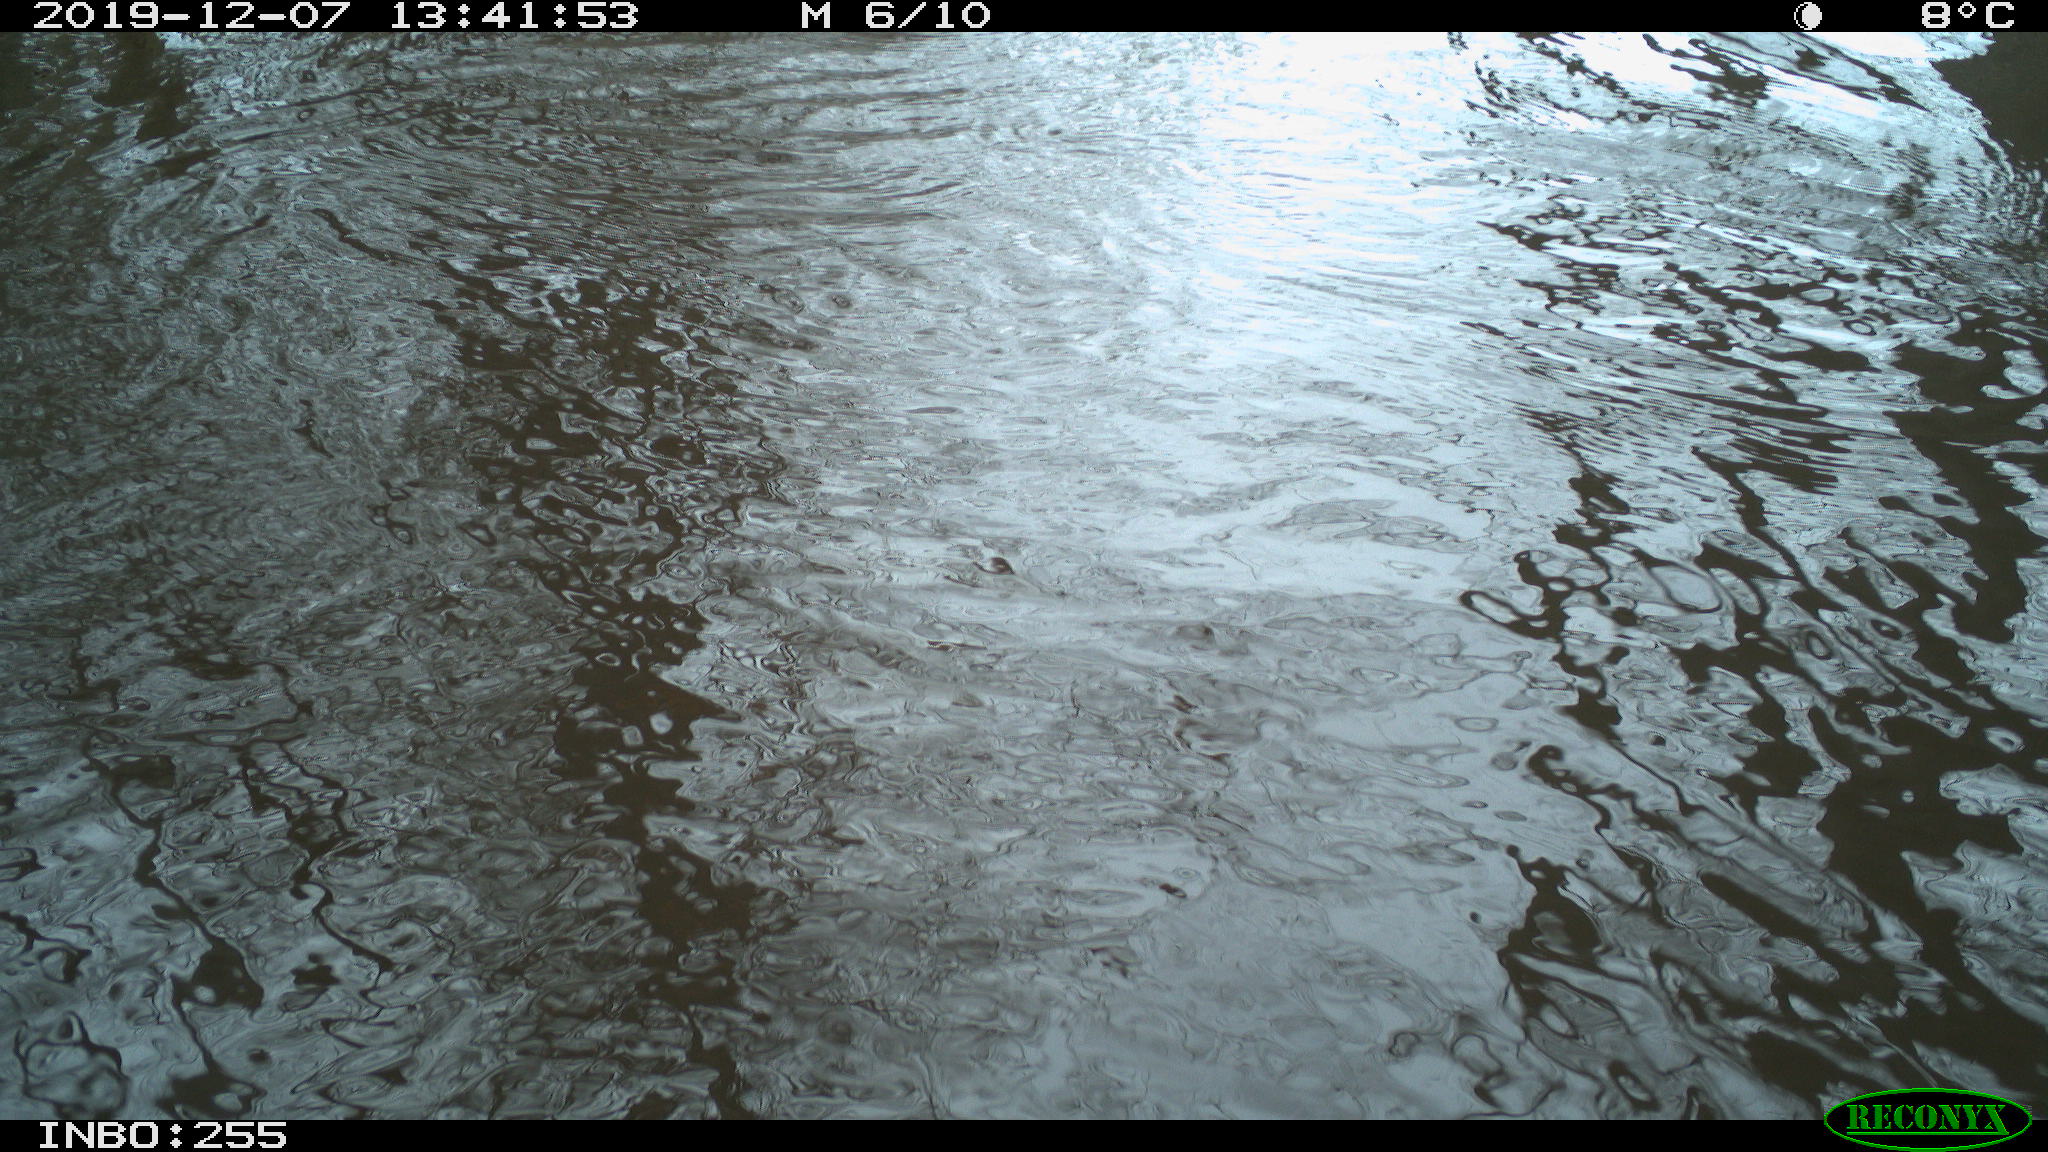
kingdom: Animalia
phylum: Chordata
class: Aves
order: Anseriformes
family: Anatidae
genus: Anas
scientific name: Anas platyrhynchos
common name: Mallard
